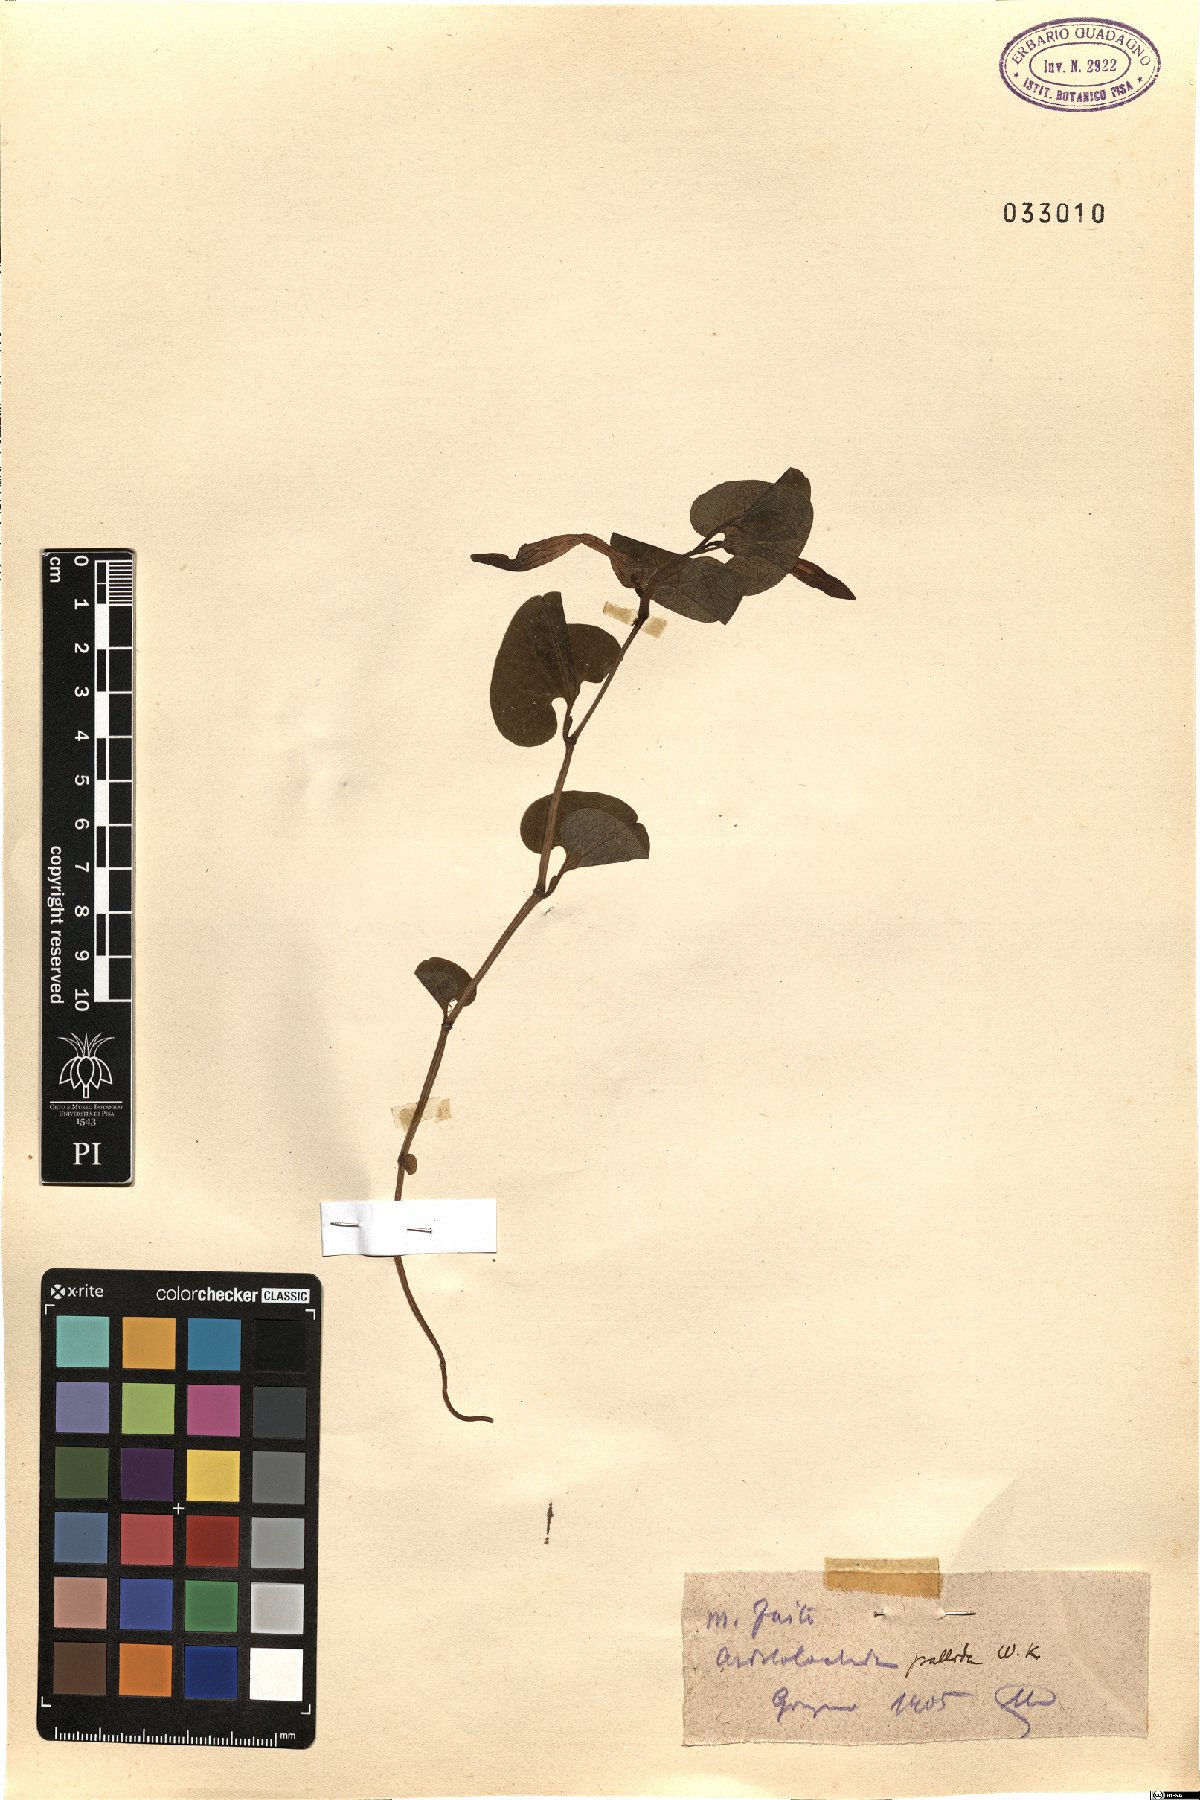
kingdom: Plantae
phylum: Tracheophyta
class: Magnoliopsida
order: Piperales
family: Aristolochiaceae
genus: Aristolochia
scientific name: Aristolochia pallida
